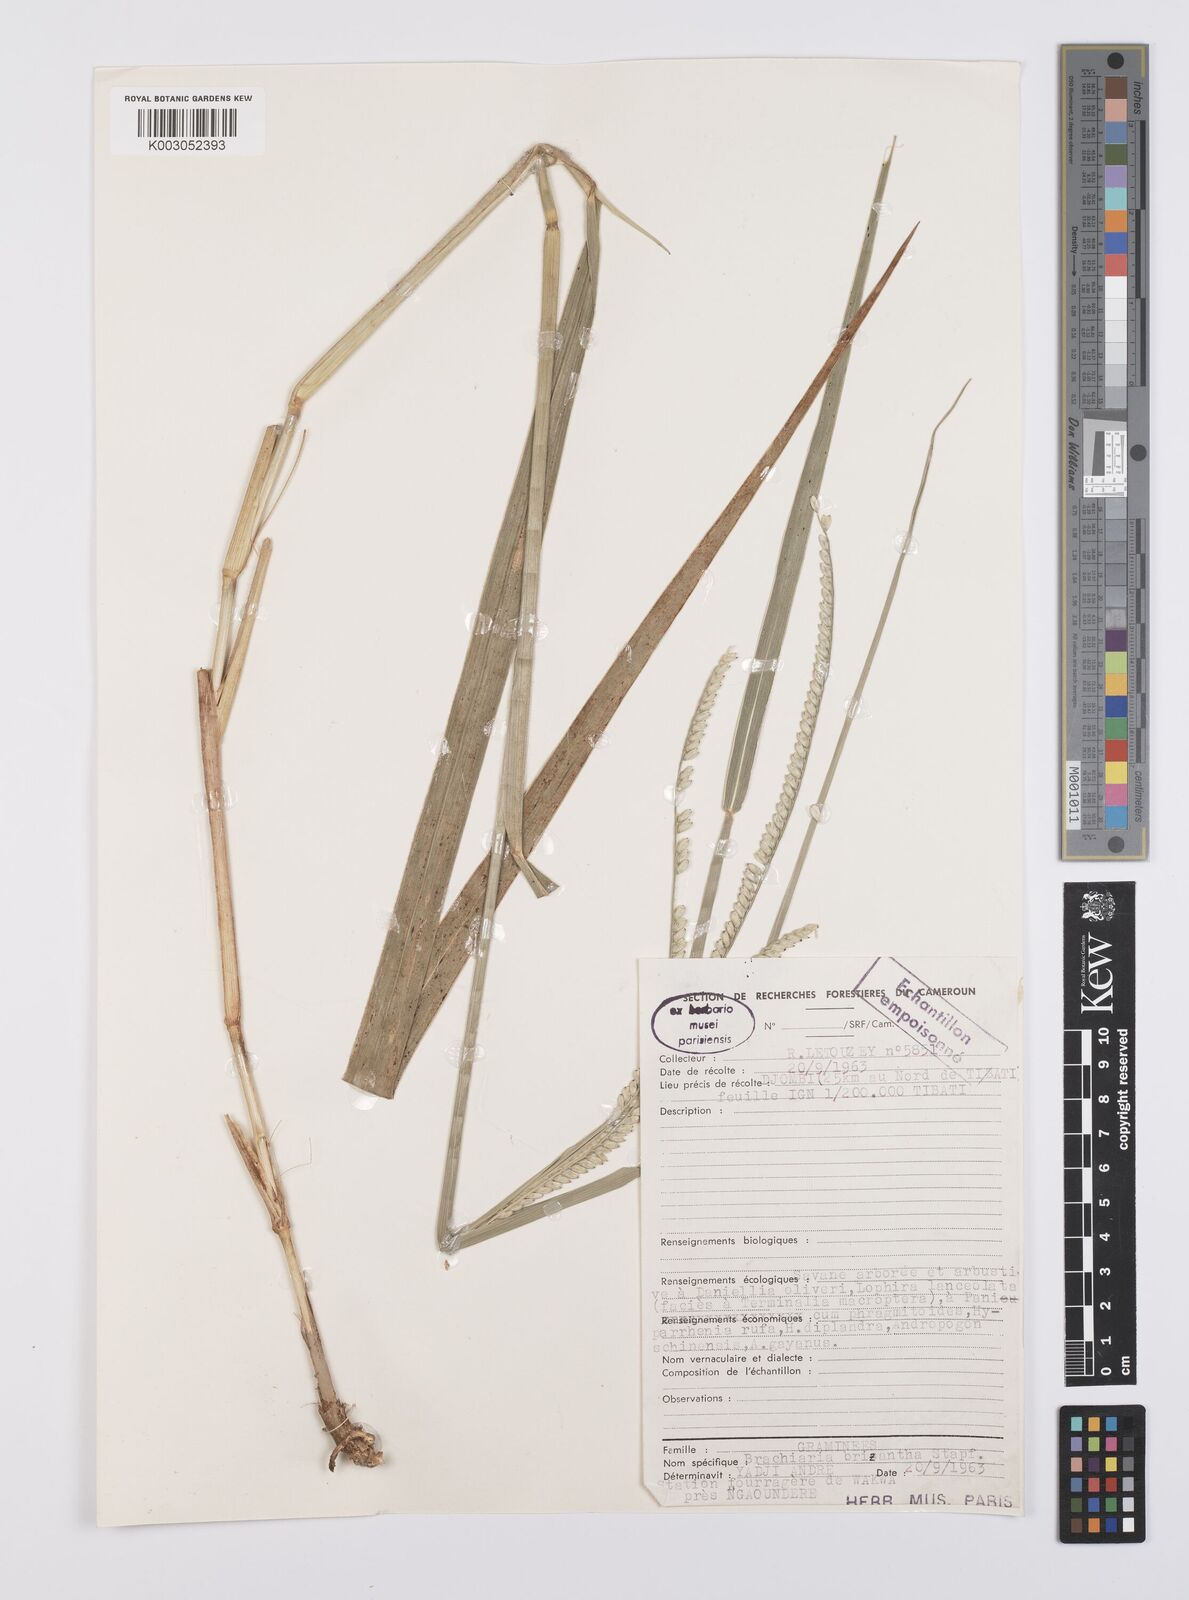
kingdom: Plantae
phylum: Tracheophyta
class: Liliopsida
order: Poales
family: Poaceae
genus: Urochloa
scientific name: Urochloa brizantha
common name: Palisade signalgrass
